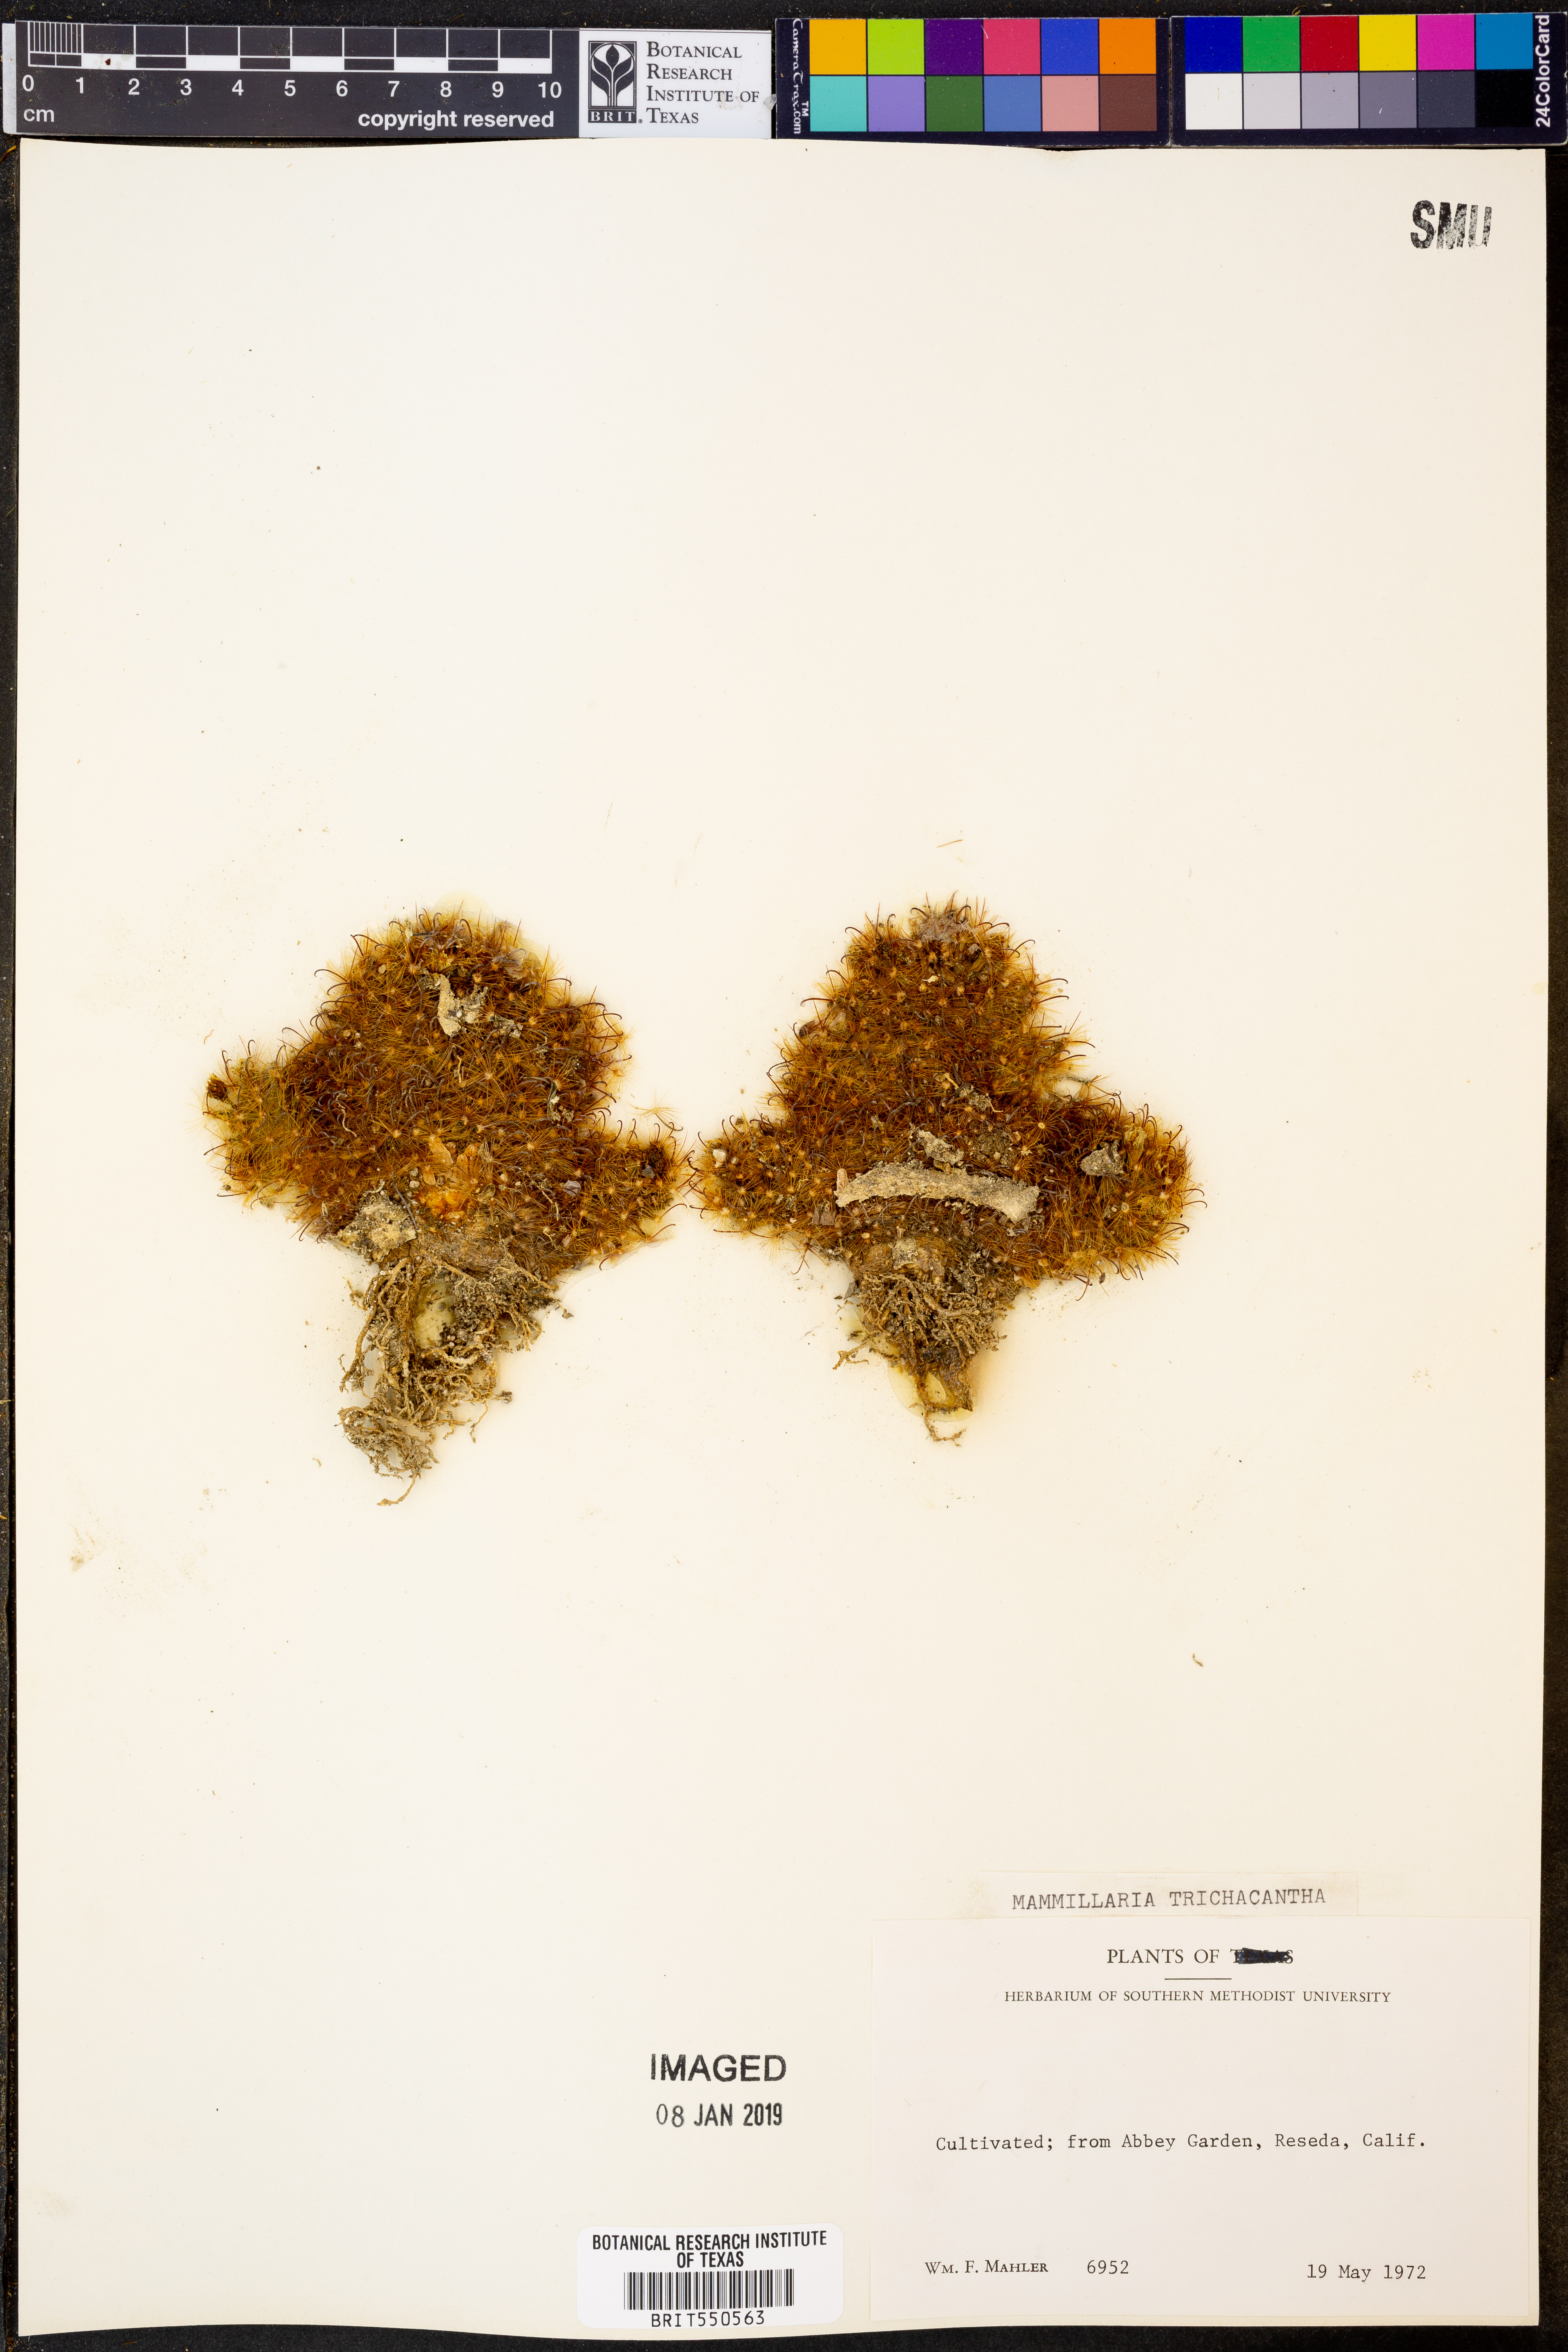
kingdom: Plantae
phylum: Tracheophyta
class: Magnoliopsida
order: Caryophyllales
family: Cactaceae
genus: Mammillaria
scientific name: Mammillaria crinita
